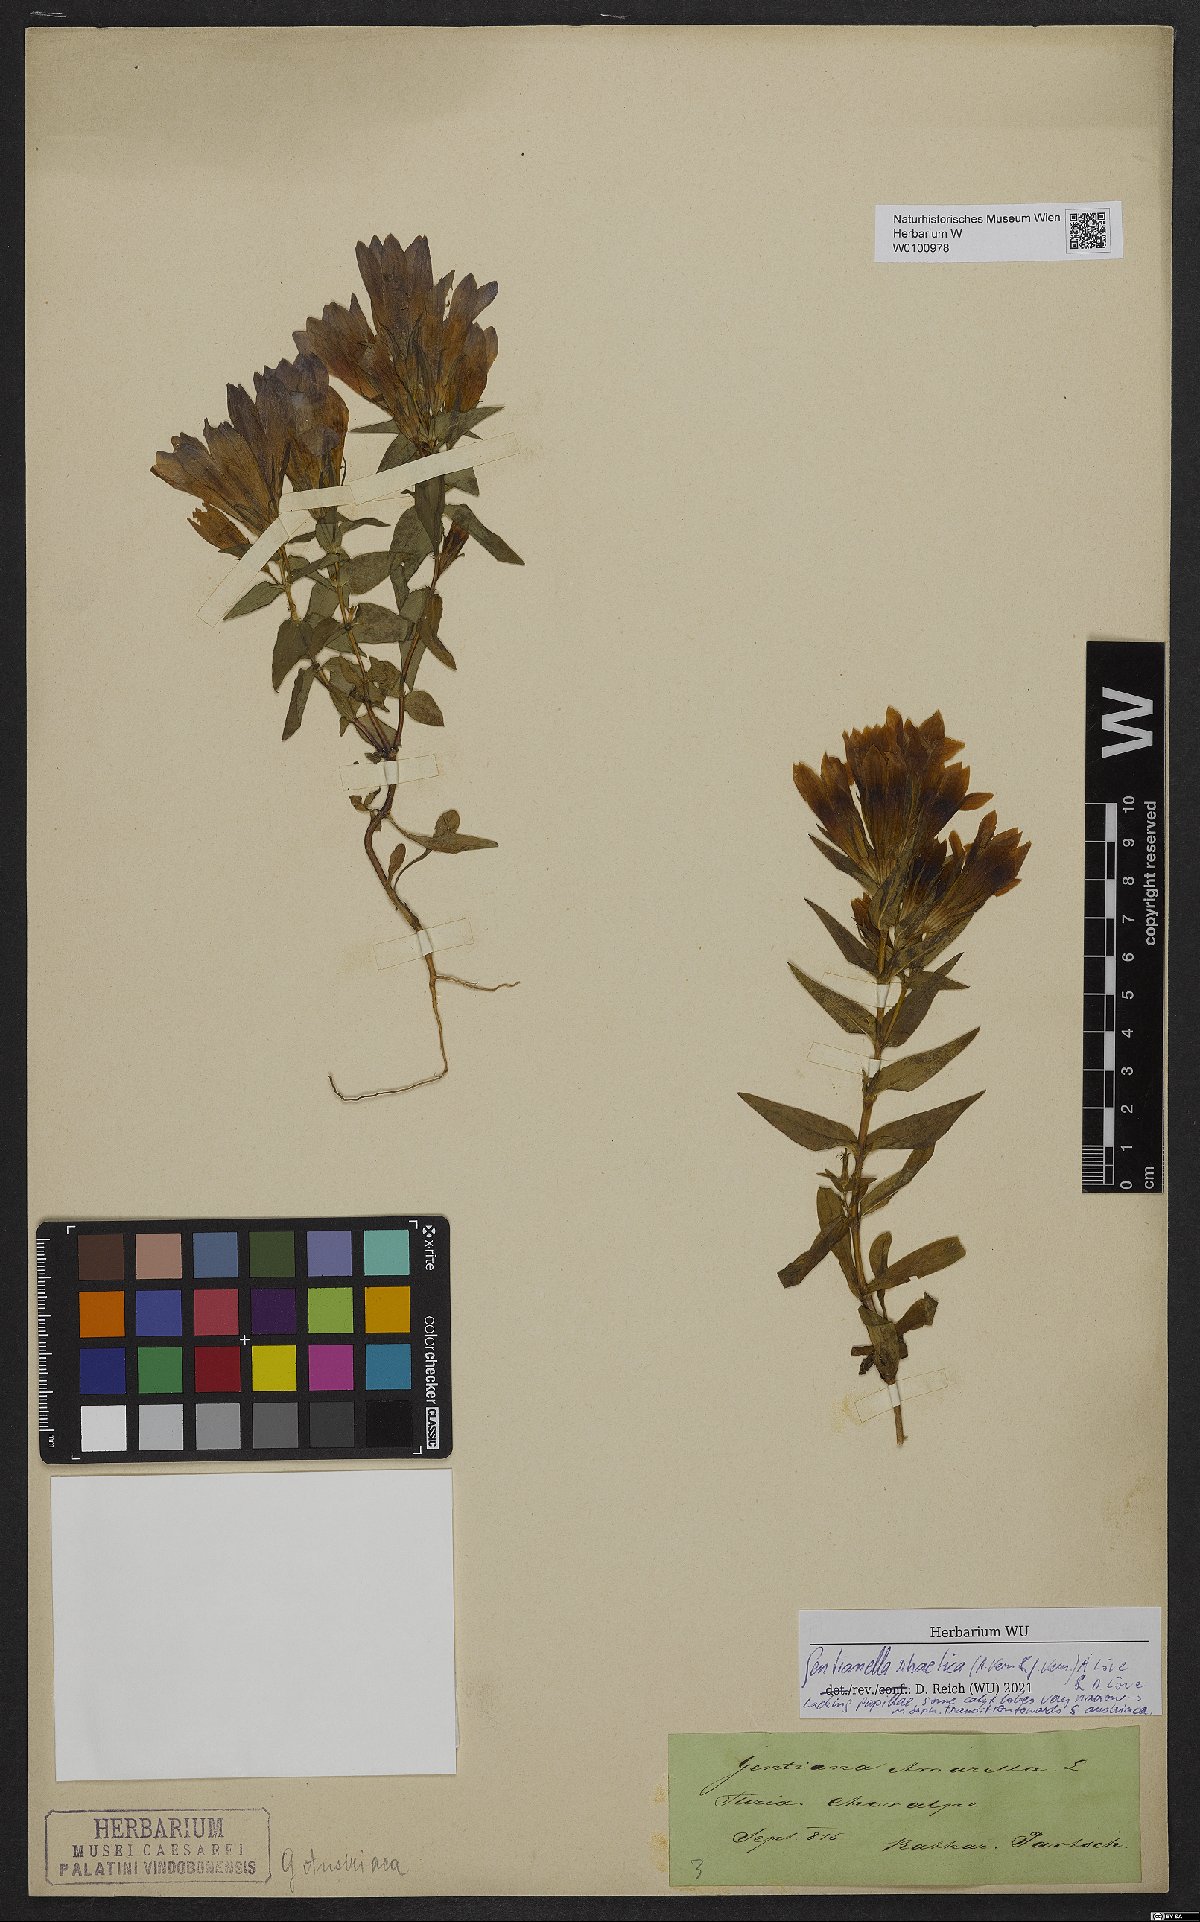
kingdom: Plantae
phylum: Tracheophyta
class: Magnoliopsida
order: Gentianales
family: Gentianaceae
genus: Gentianella
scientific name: Gentianella rhaetica
